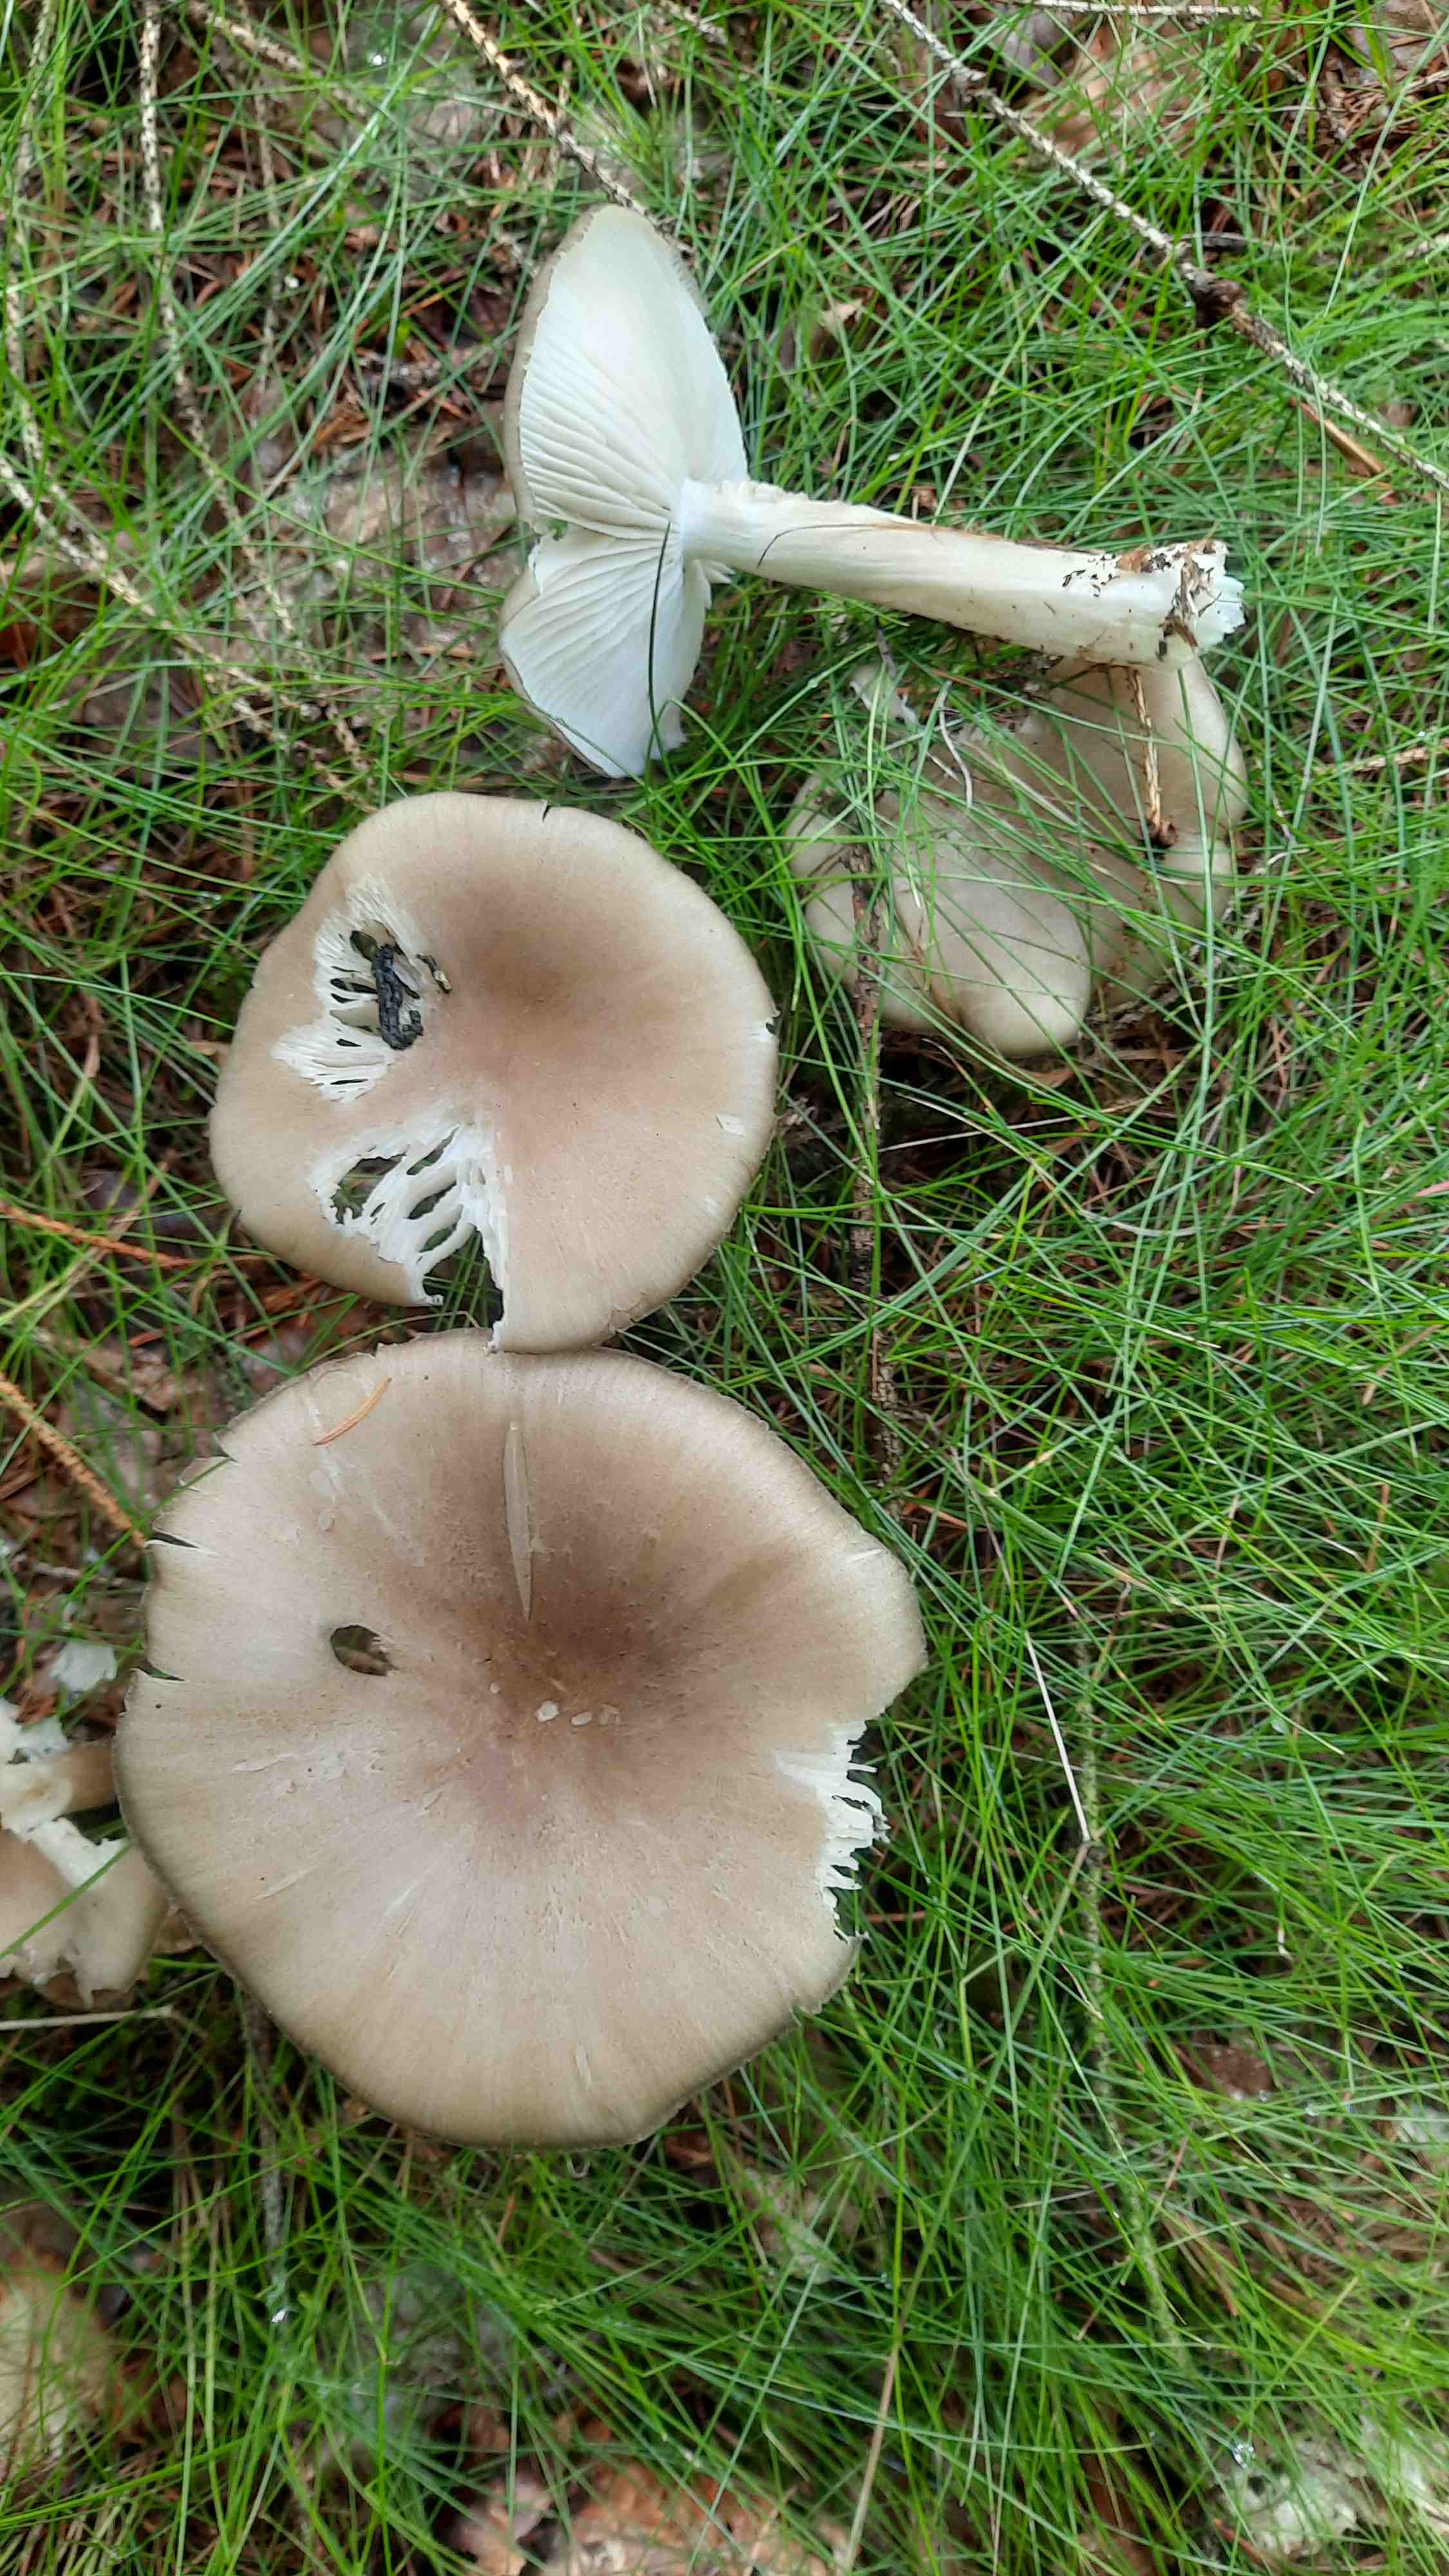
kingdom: Fungi
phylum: Basidiomycota
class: Agaricomycetes
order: Agaricales
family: Tricholomataceae
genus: Megacollybia
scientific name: Megacollybia platyphylla
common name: bredbladet væbnerhat
